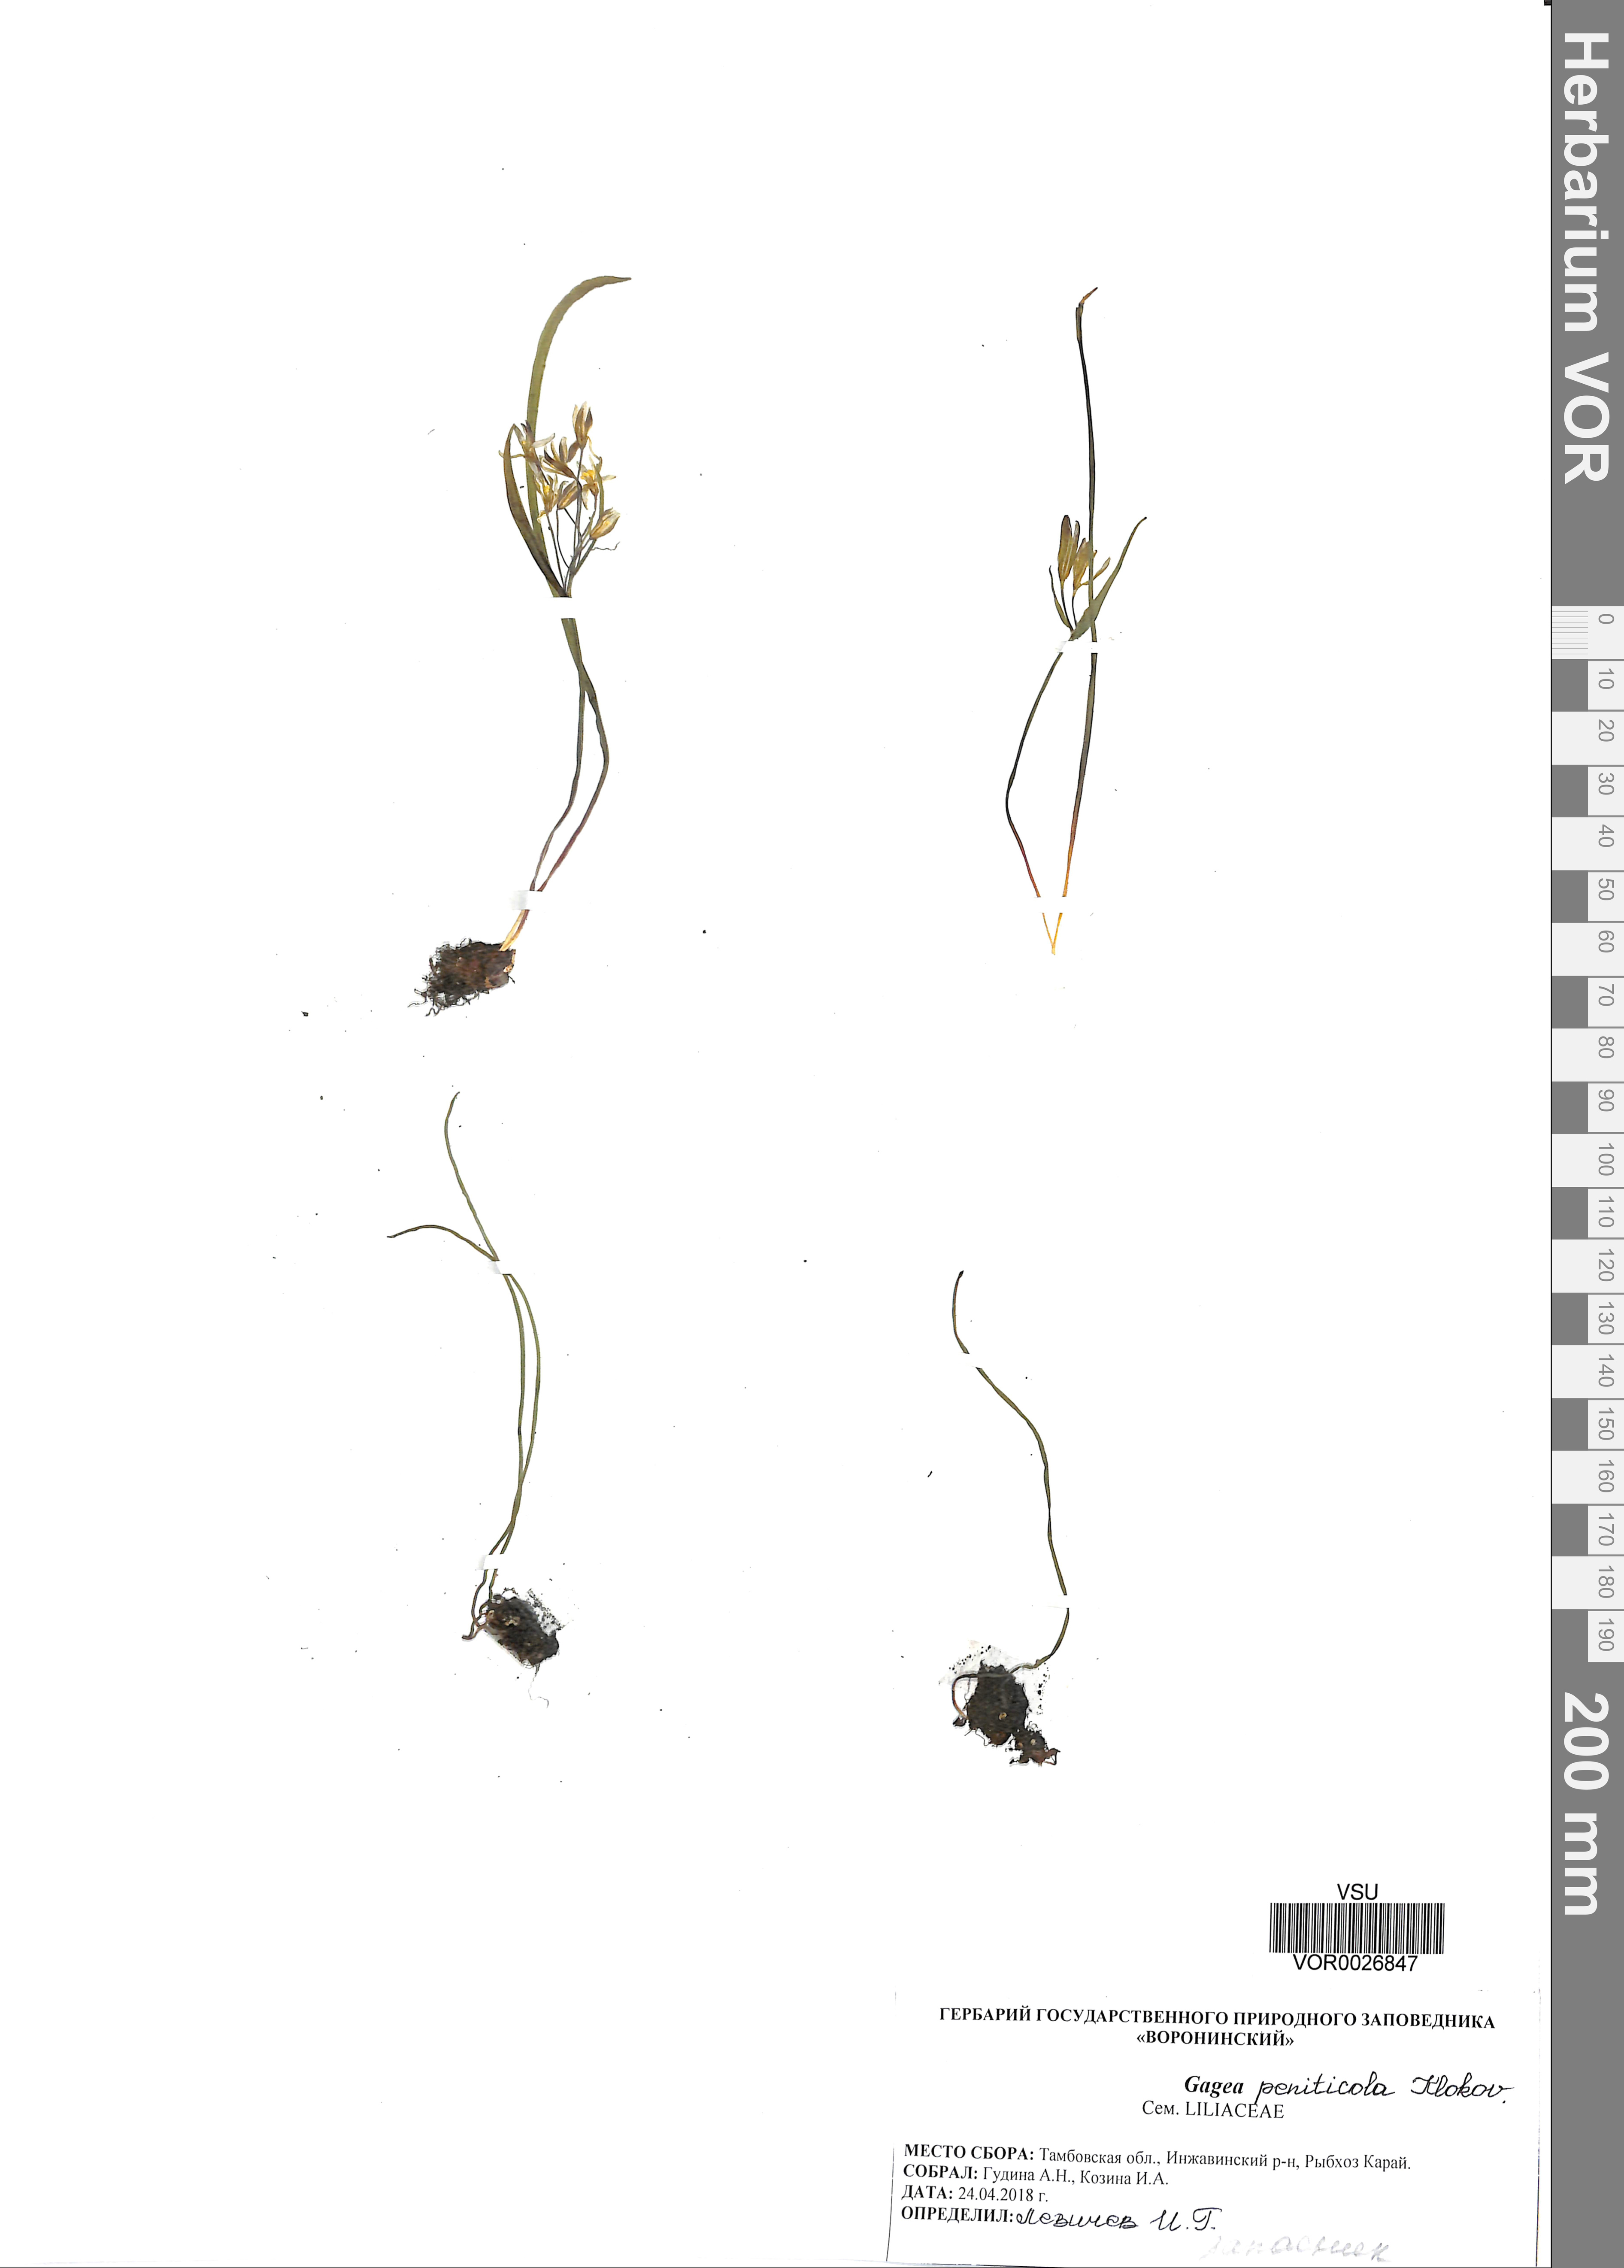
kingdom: Plantae
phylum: Tracheophyta
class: Liliopsida
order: Liliales
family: Liliaceae
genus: Gagea
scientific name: Gagea pusilla
